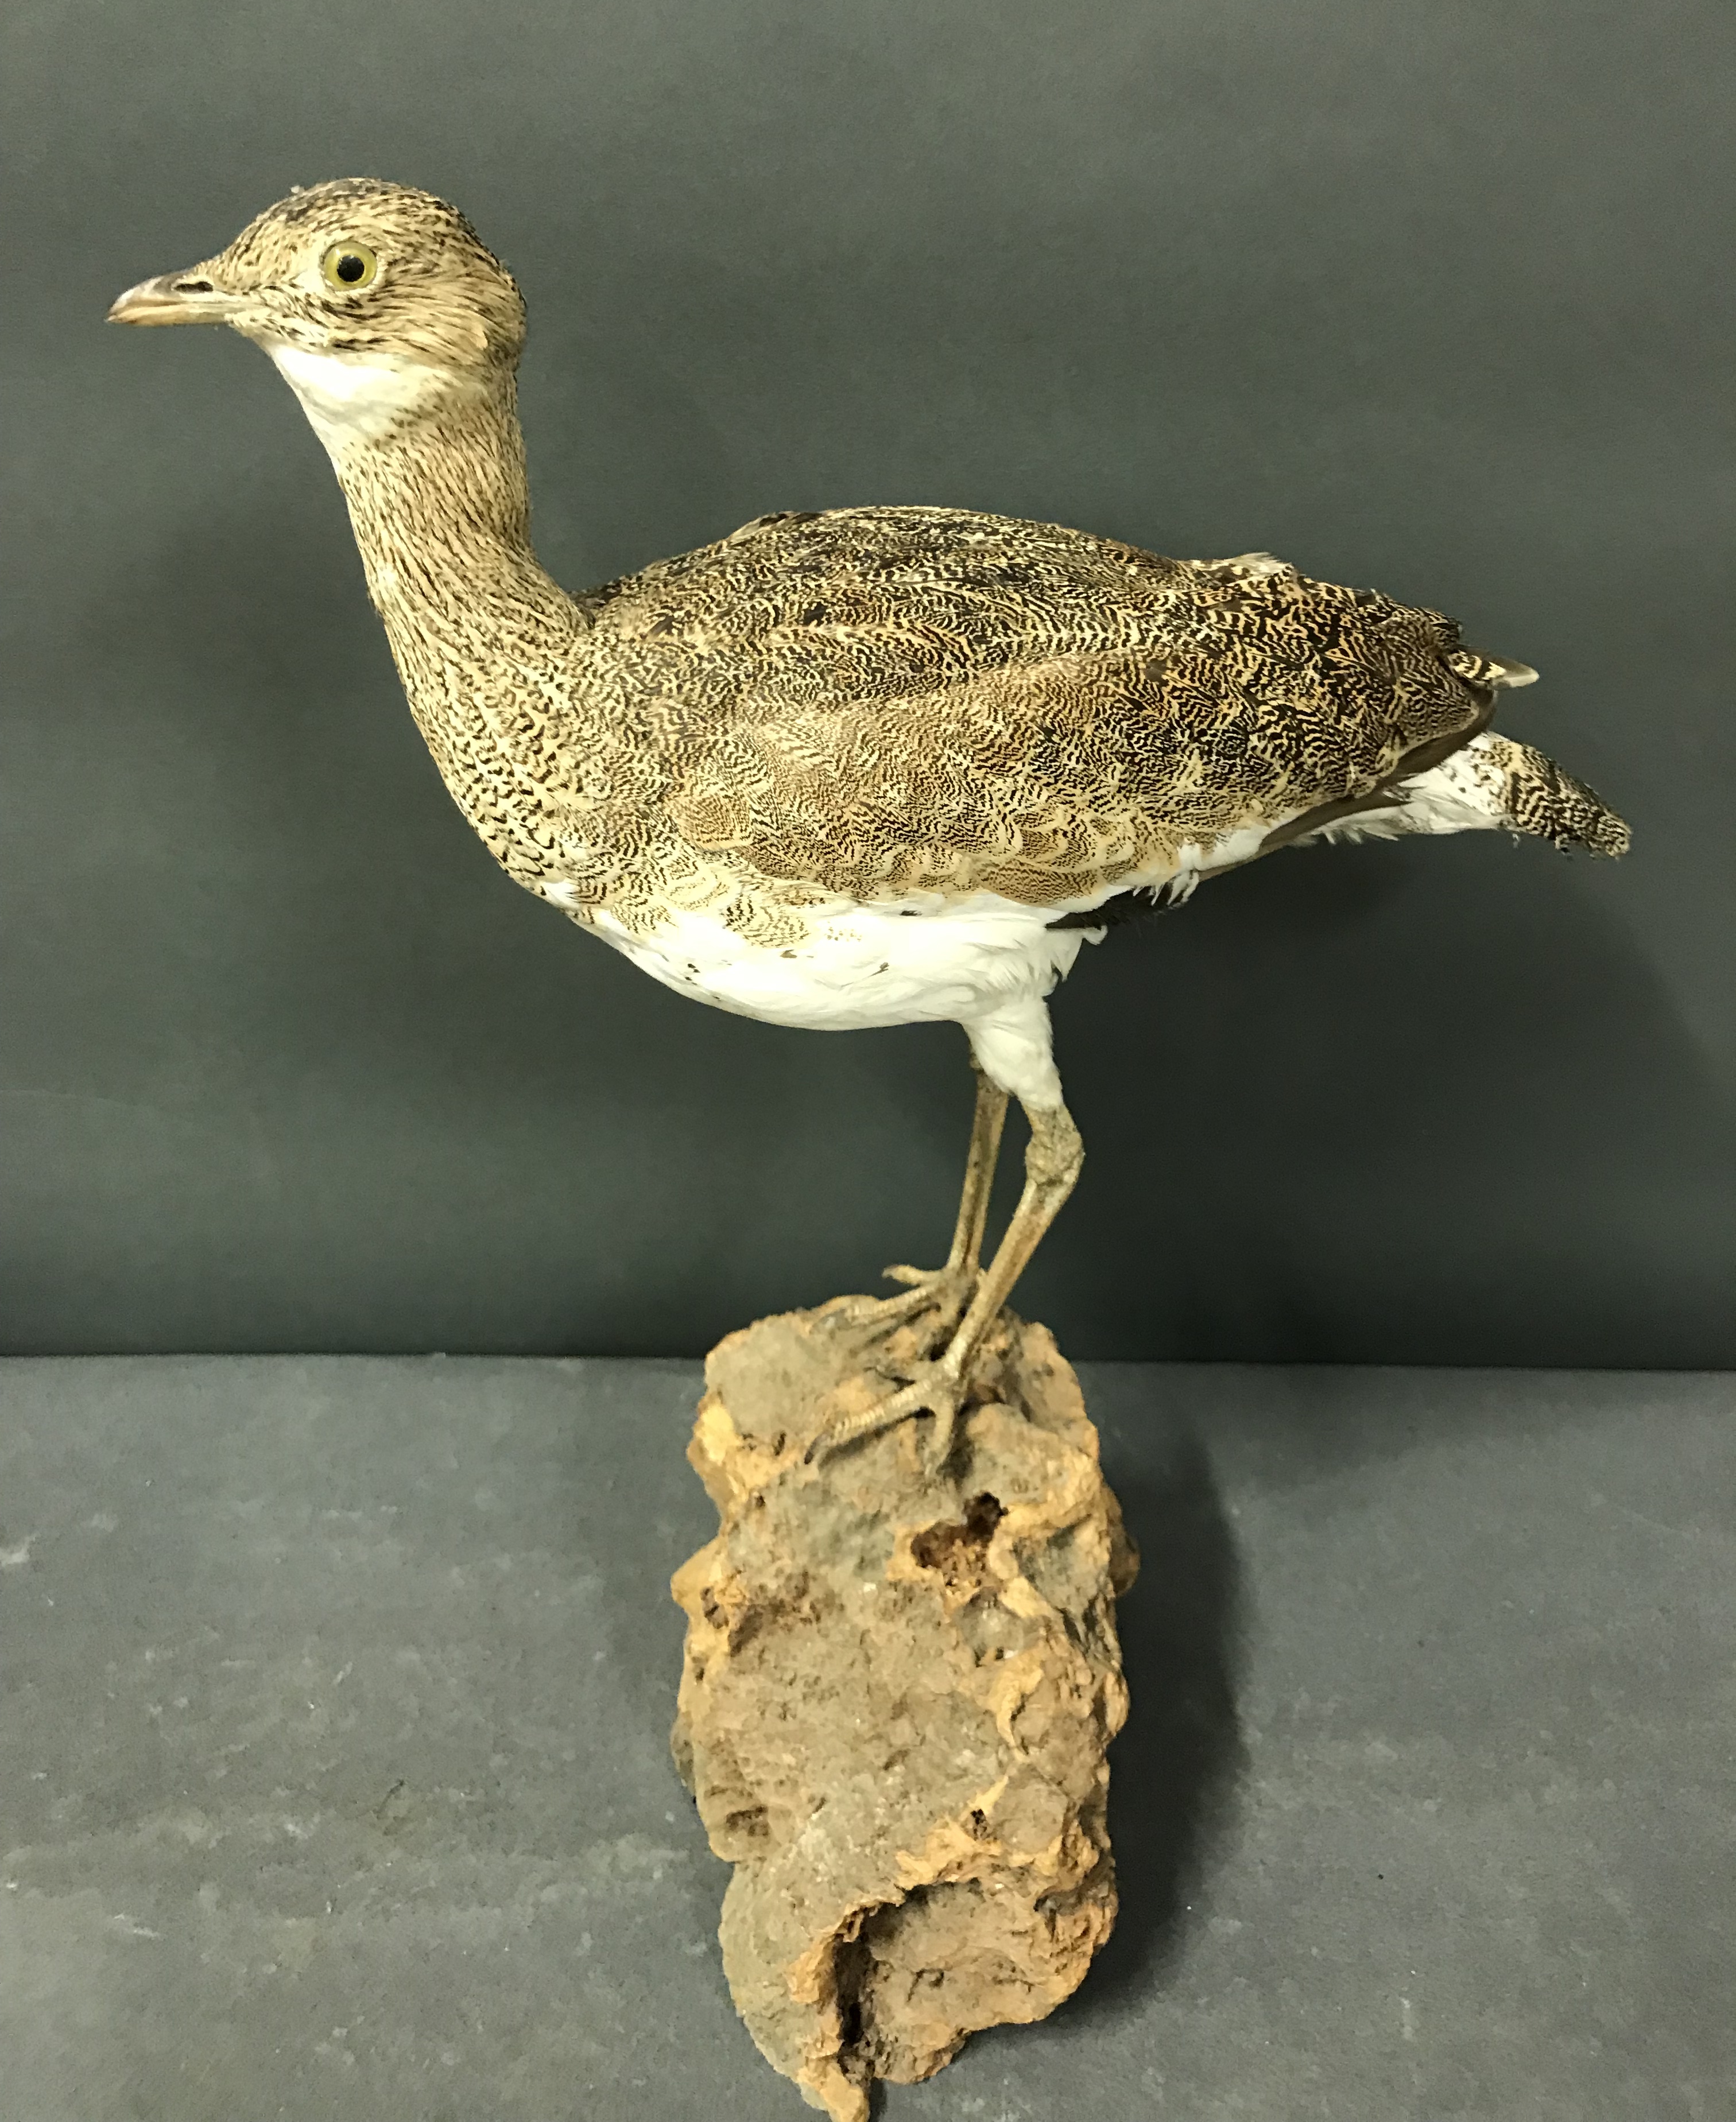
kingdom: Animalia
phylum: Chordata
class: Aves
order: Otidiformes
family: Otididae
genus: Tetrax
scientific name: Tetrax tetrax
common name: Little bustard
